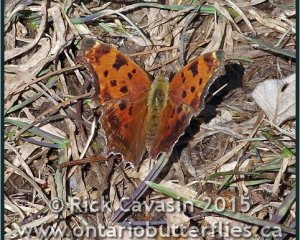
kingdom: Animalia
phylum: Arthropoda
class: Insecta
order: Lepidoptera
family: Nymphalidae
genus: Polygonia
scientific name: Polygonia comma
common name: Eastern Comma
